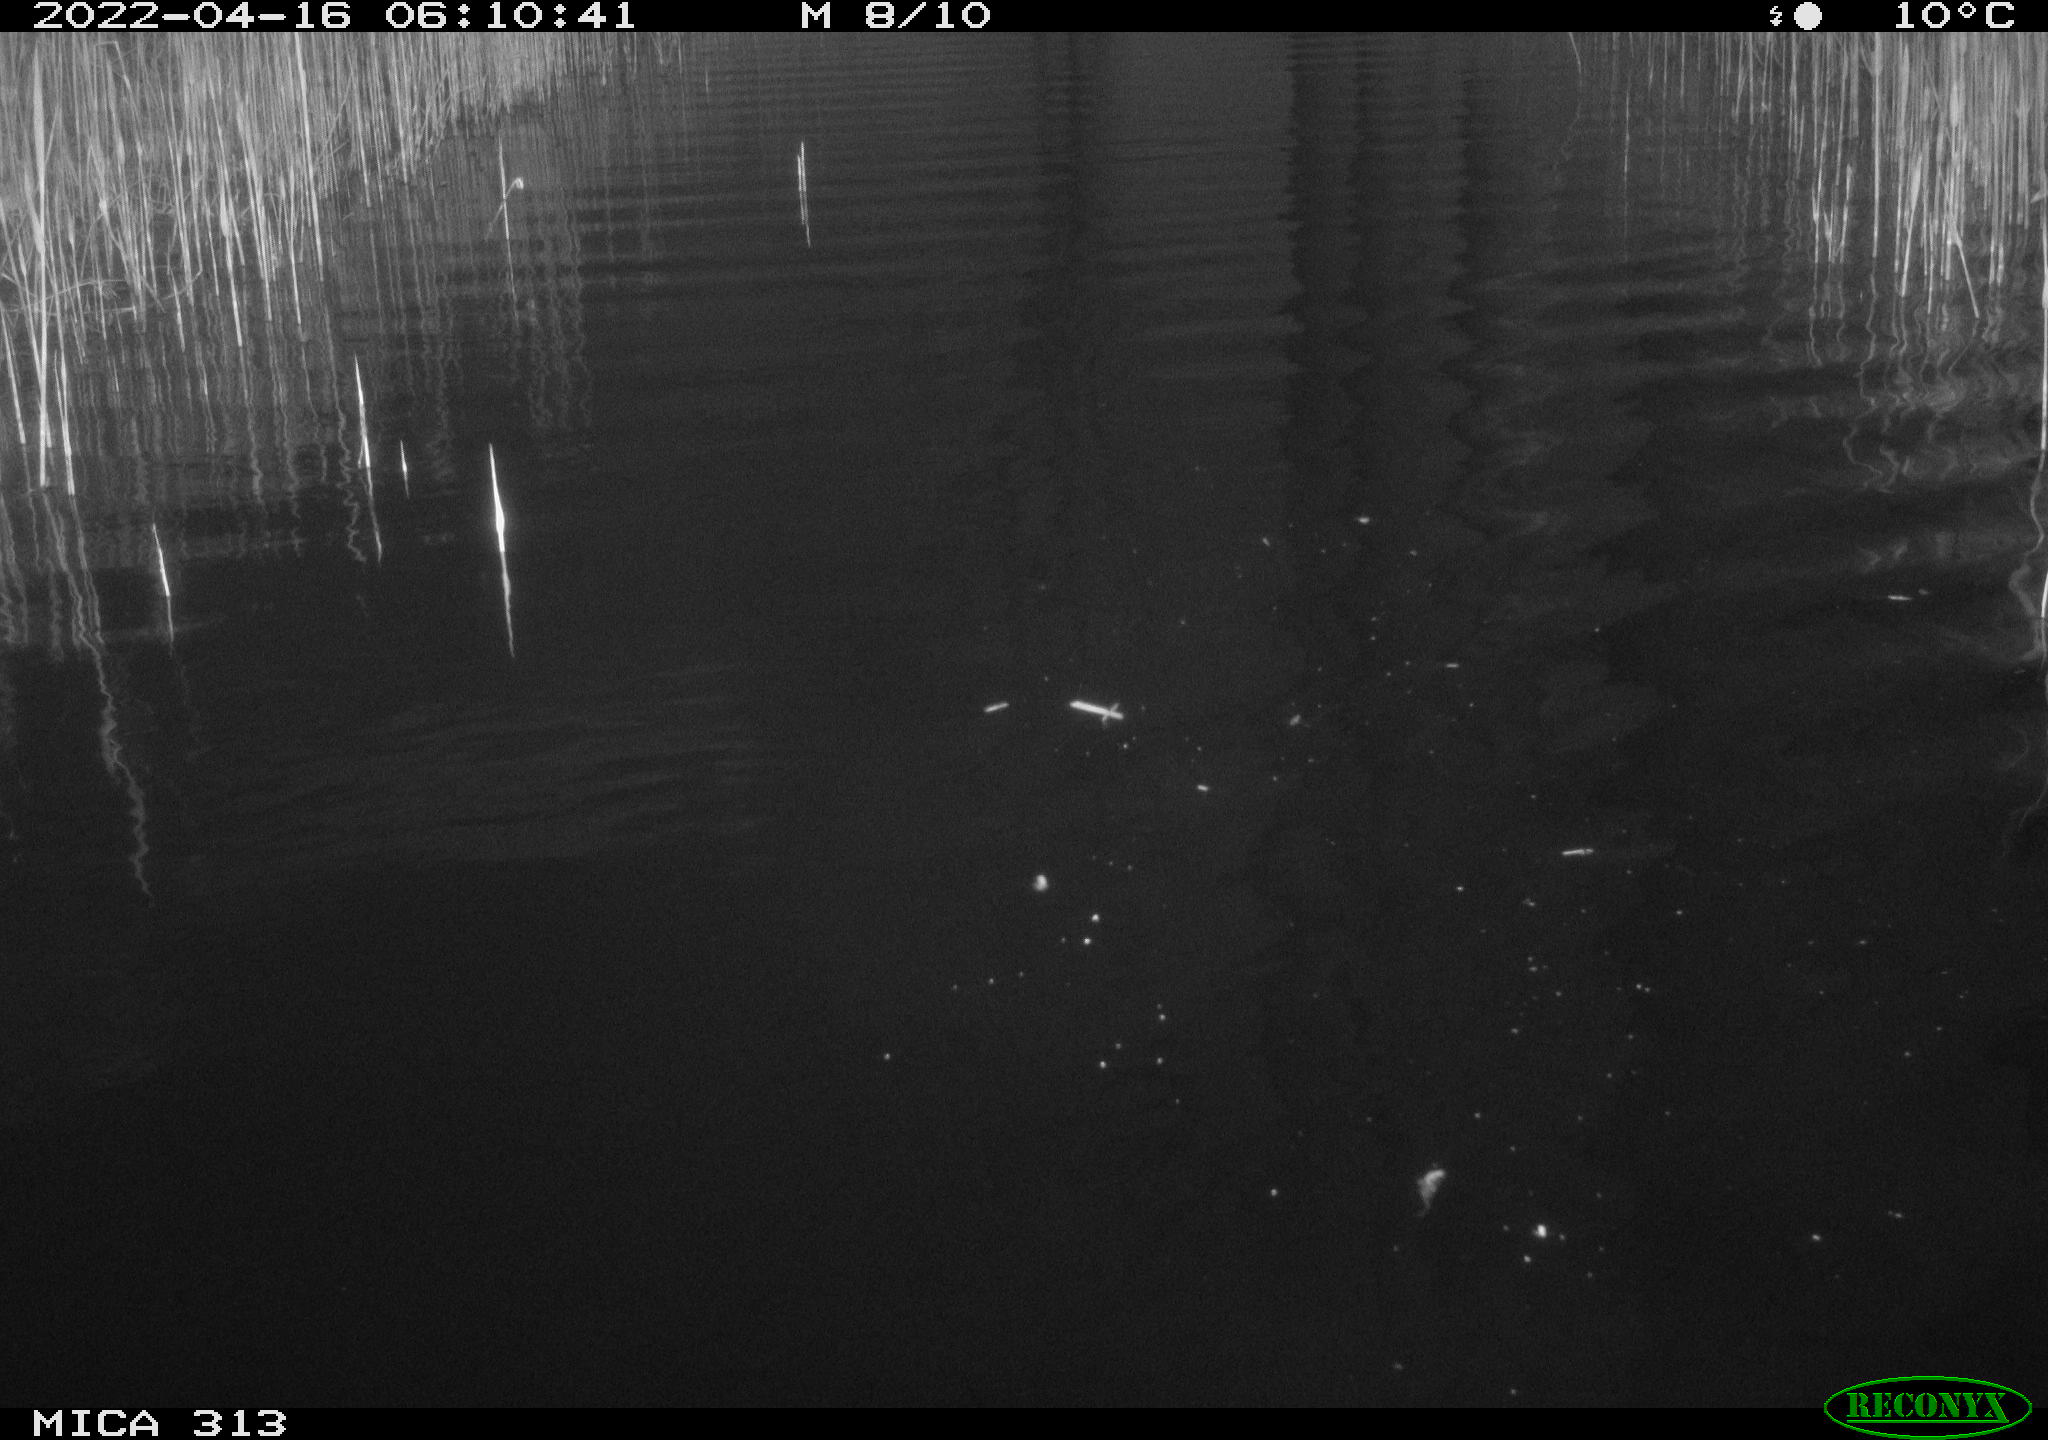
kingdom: Animalia
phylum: Chordata
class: Aves
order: Anseriformes
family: Anatidae
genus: Anas
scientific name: Anas platyrhynchos
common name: Mallard
